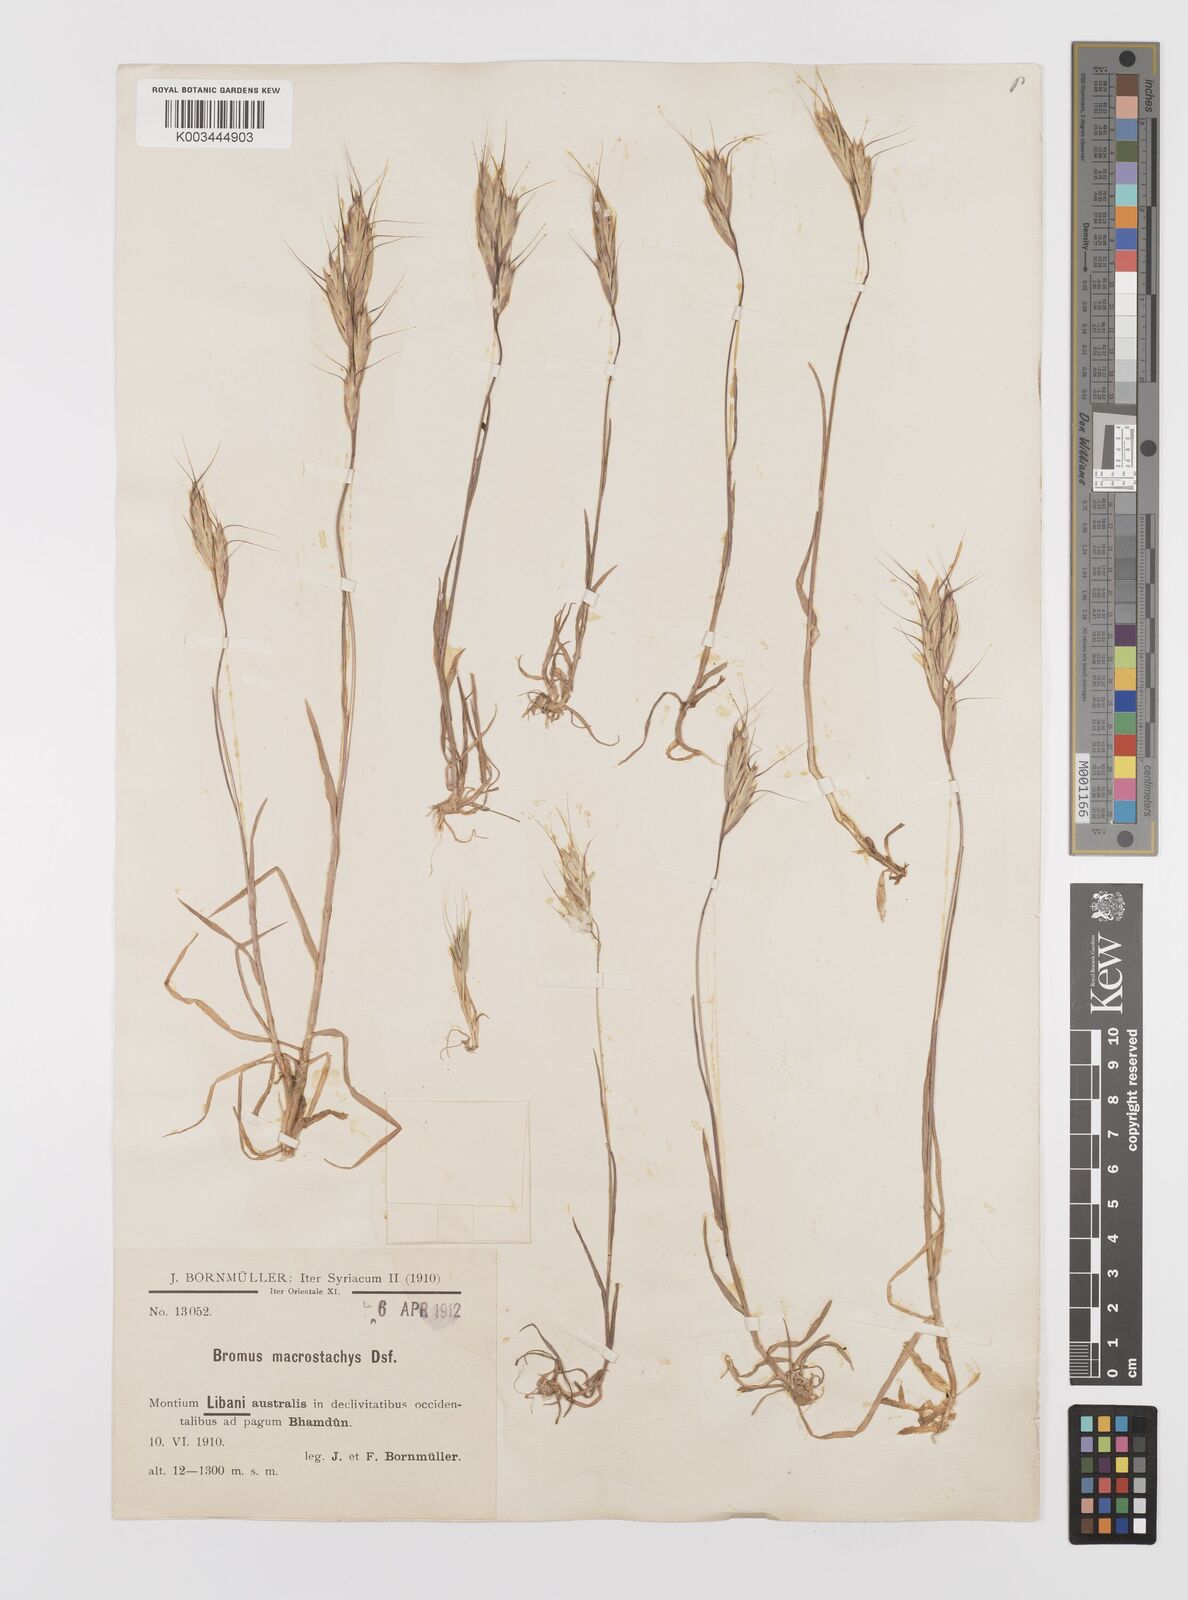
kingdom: Plantae
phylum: Tracheophyta
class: Liliopsida
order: Poales
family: Poaceae
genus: Bromus
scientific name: Bromus lanceolatus
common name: Mediterranean brome
